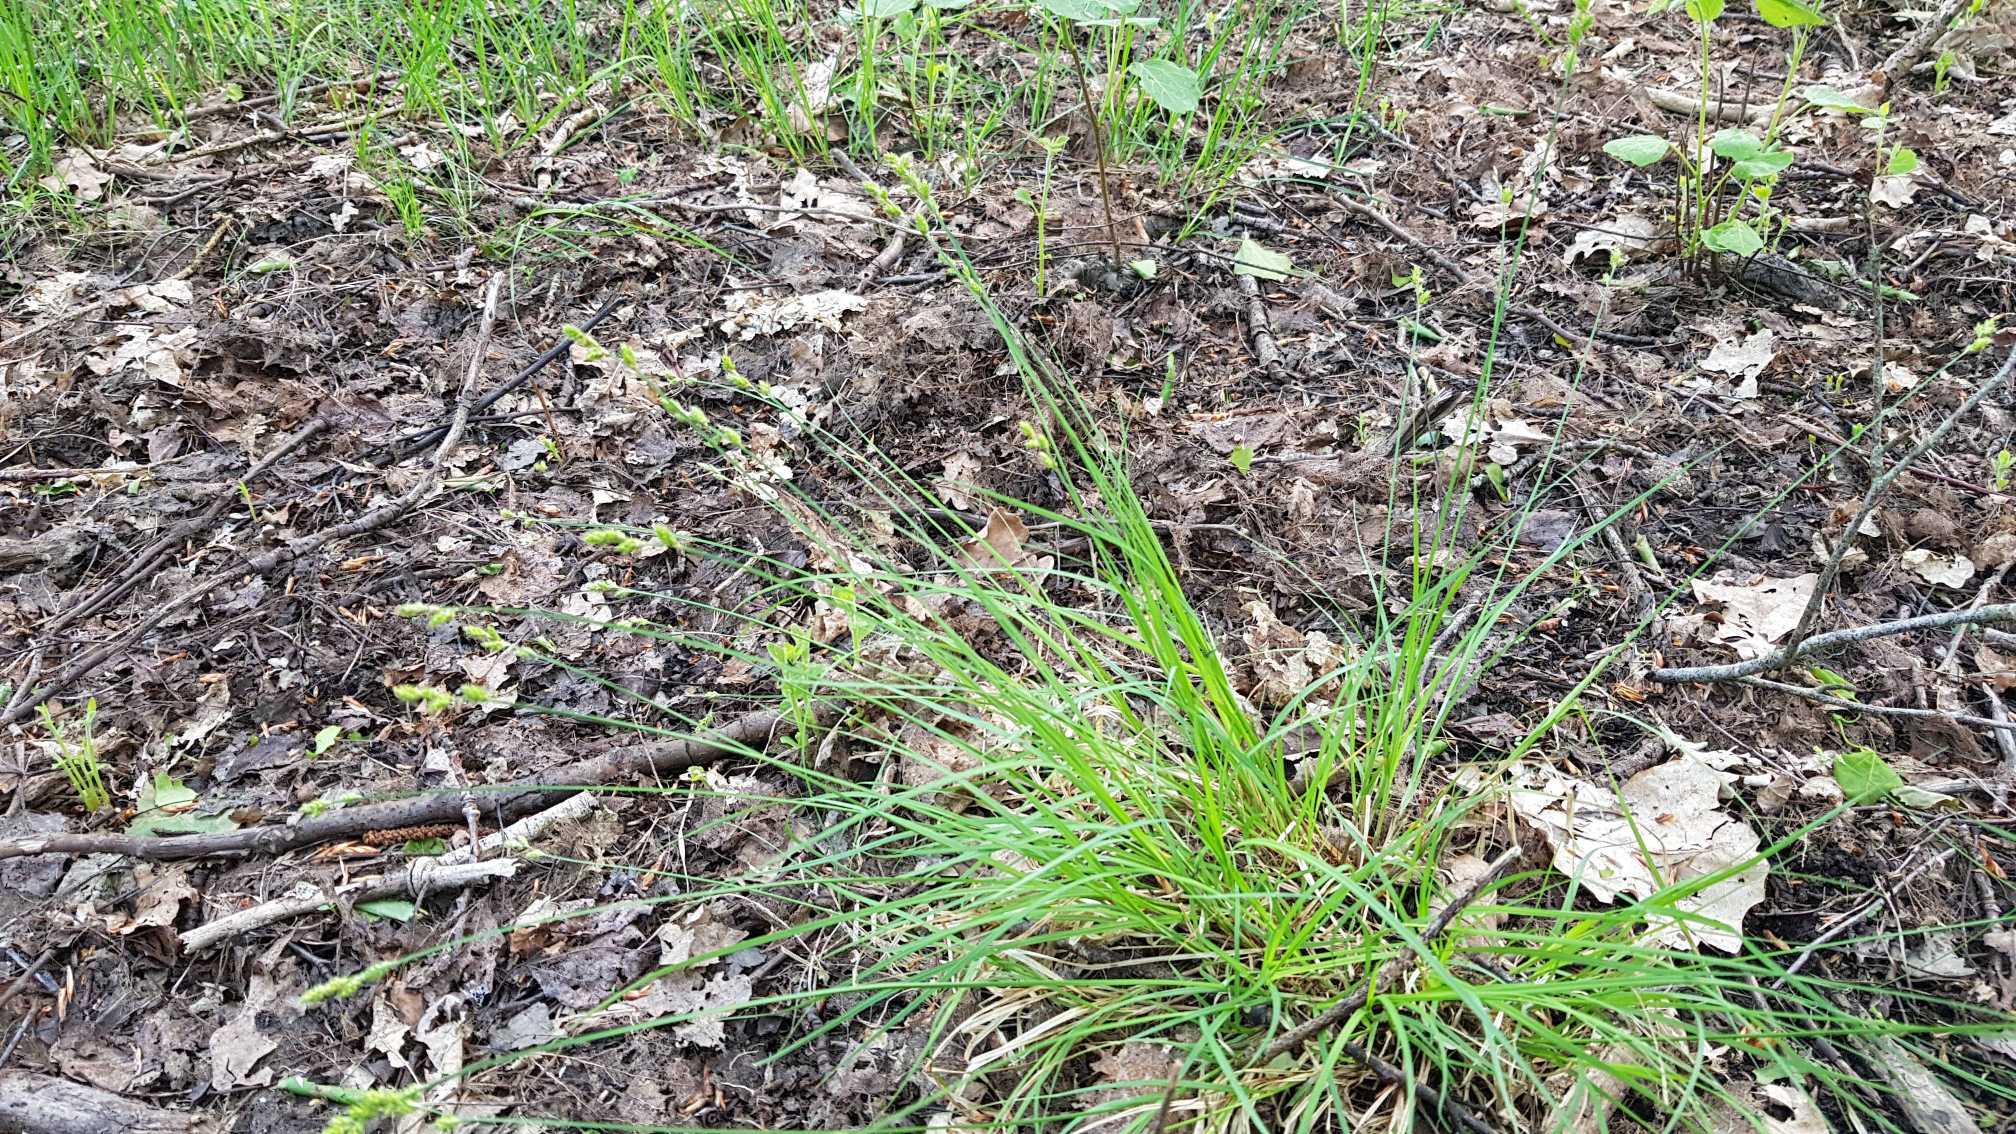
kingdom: Plantae
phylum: Tracheophyta
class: Liliopsida
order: Poales
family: Cyperaceae
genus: Carex
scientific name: Carex canescens
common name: Grå star
